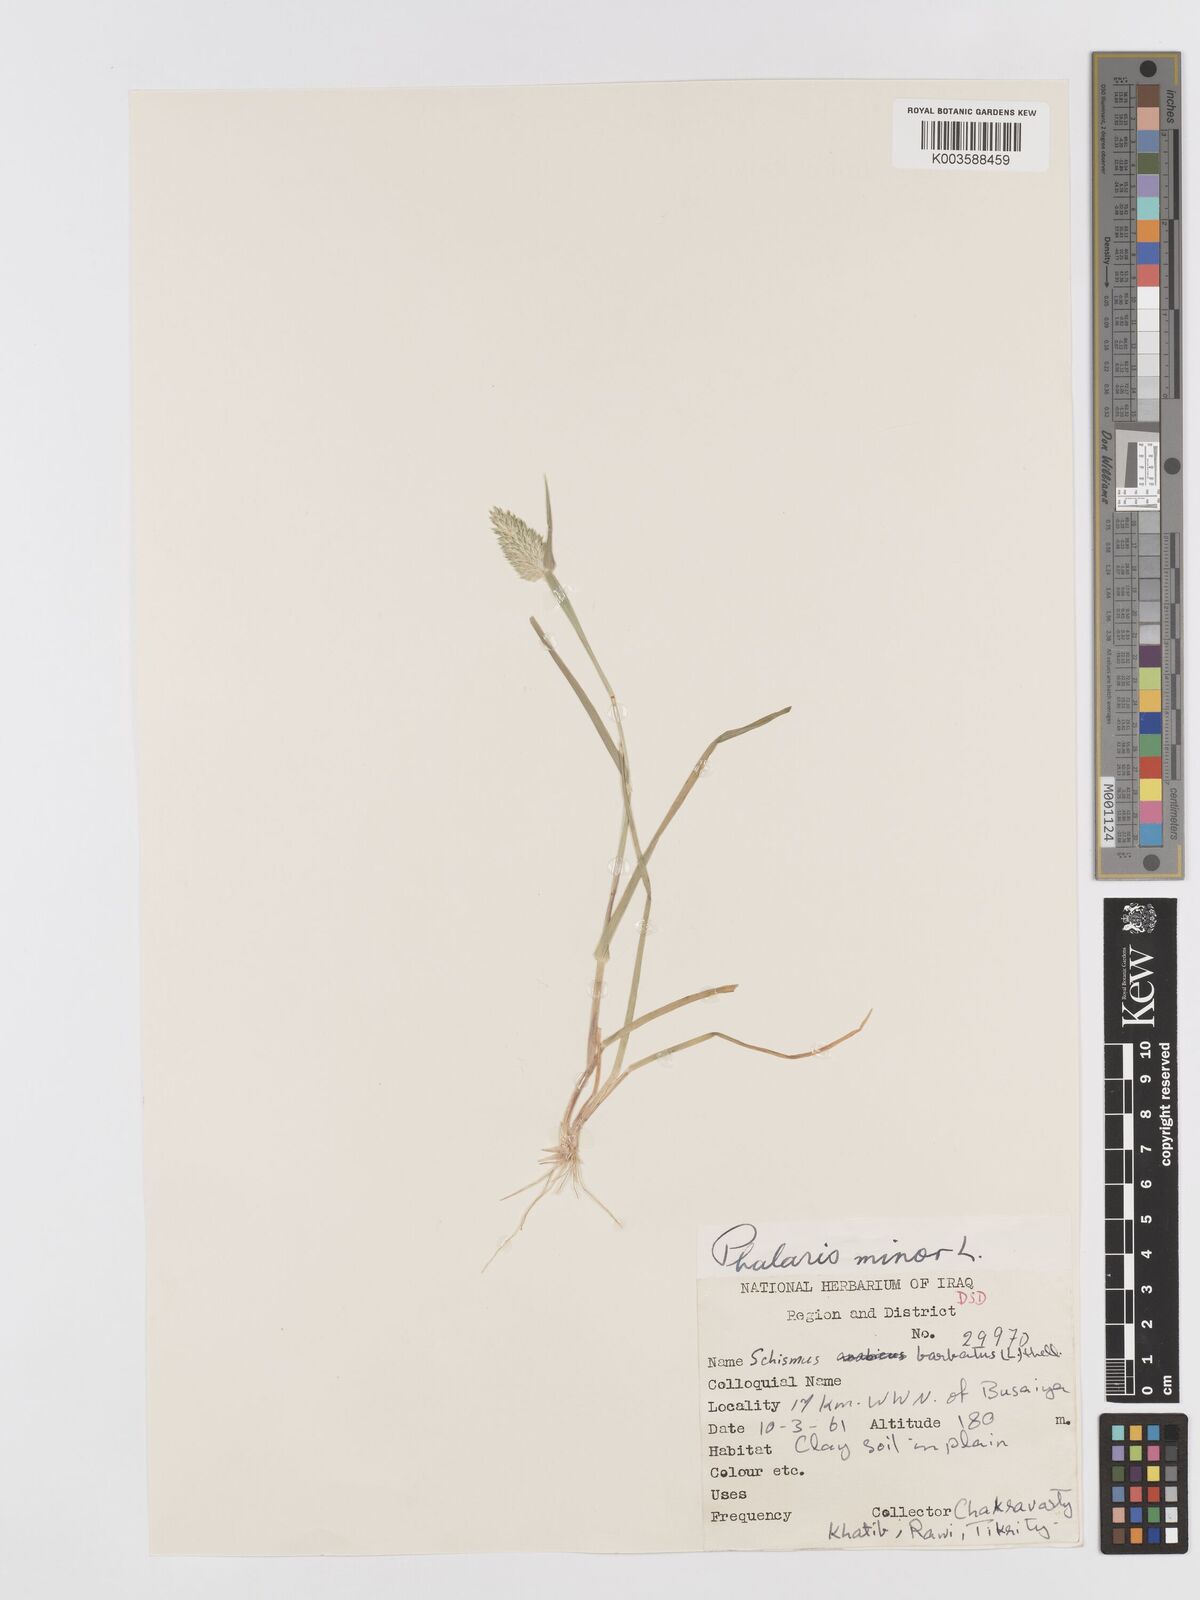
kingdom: Plantae
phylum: Tracheophyta
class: Liliopsida
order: Poales
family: Poaceae
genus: Phalaris
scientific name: Phalaris minor
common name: Littleseed canarygrass
